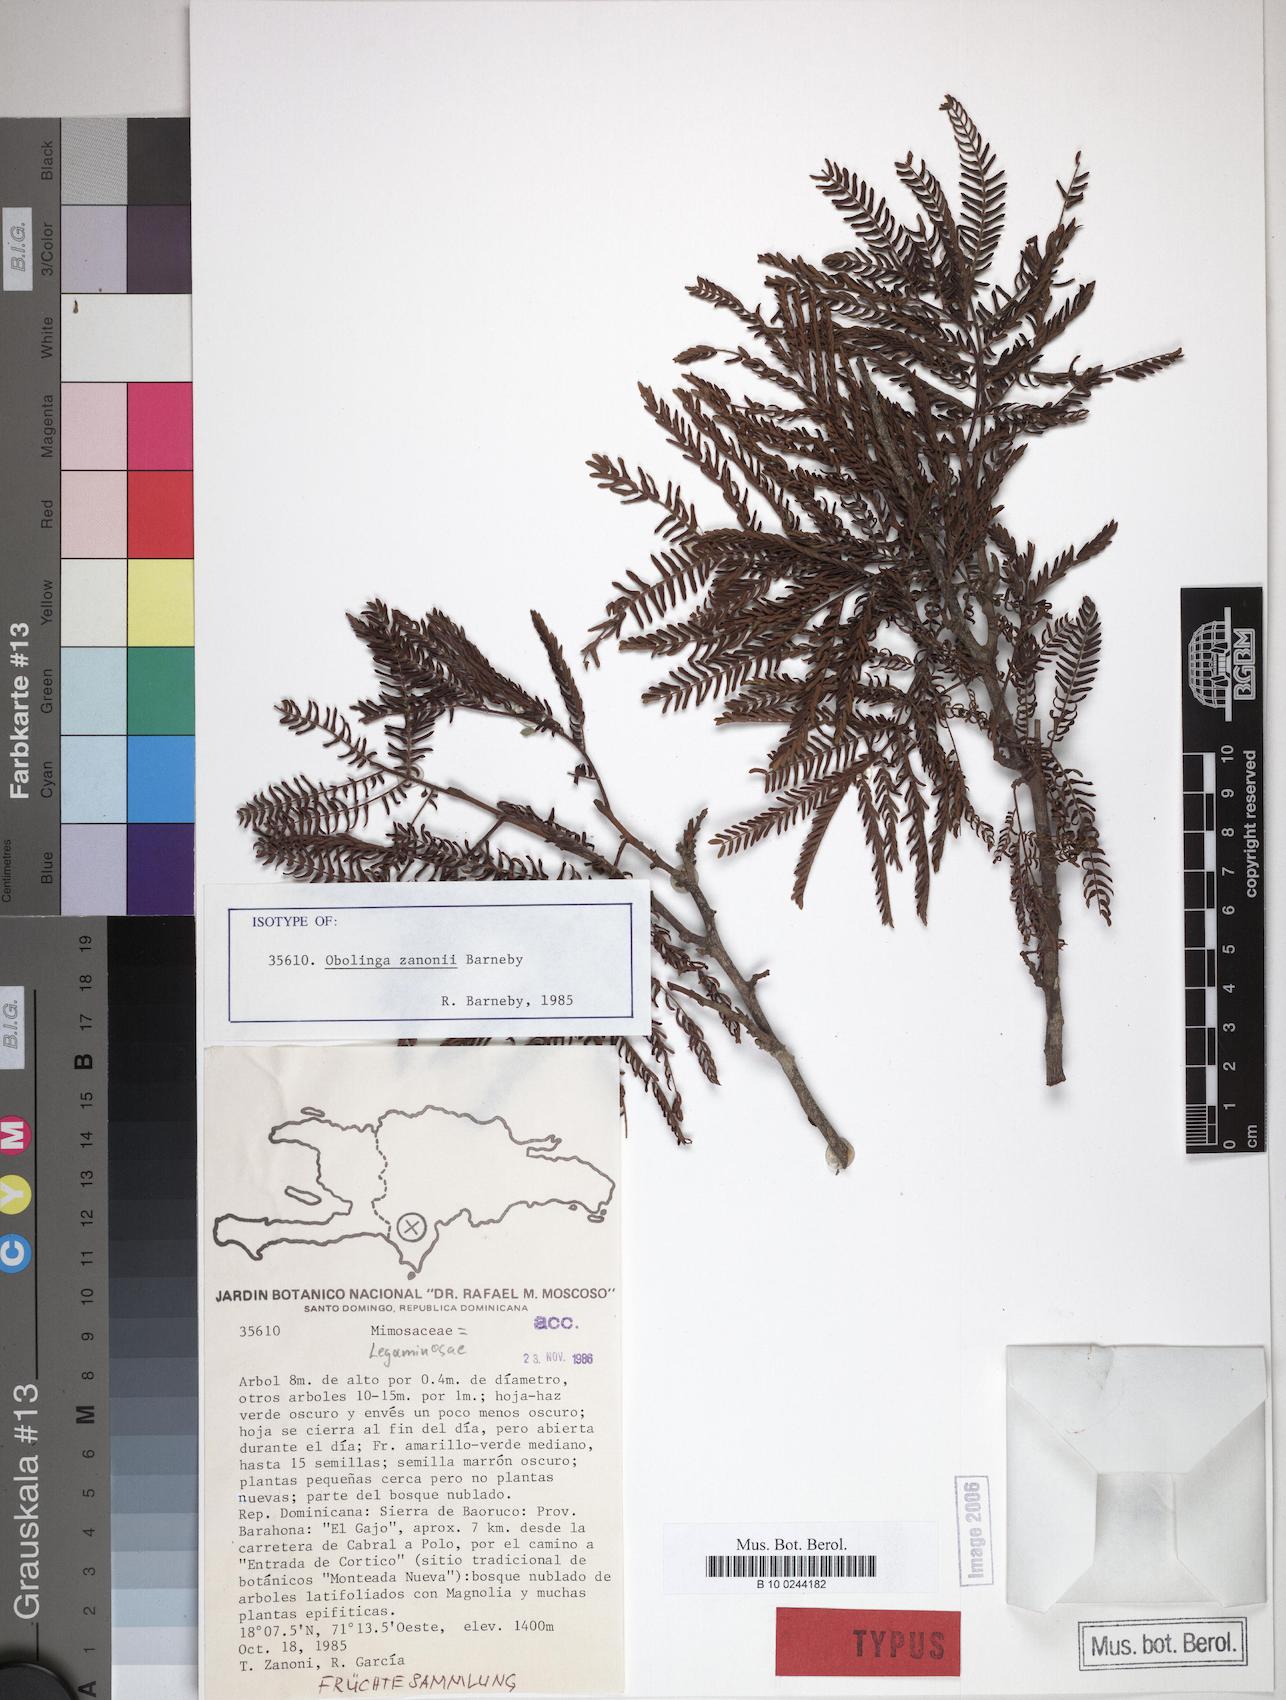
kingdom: Plantae
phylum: Tracheophyta
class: Magnoliopsida
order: Fabales
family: Fabaceae
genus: Cojoba
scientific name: Cojoba zanonii
